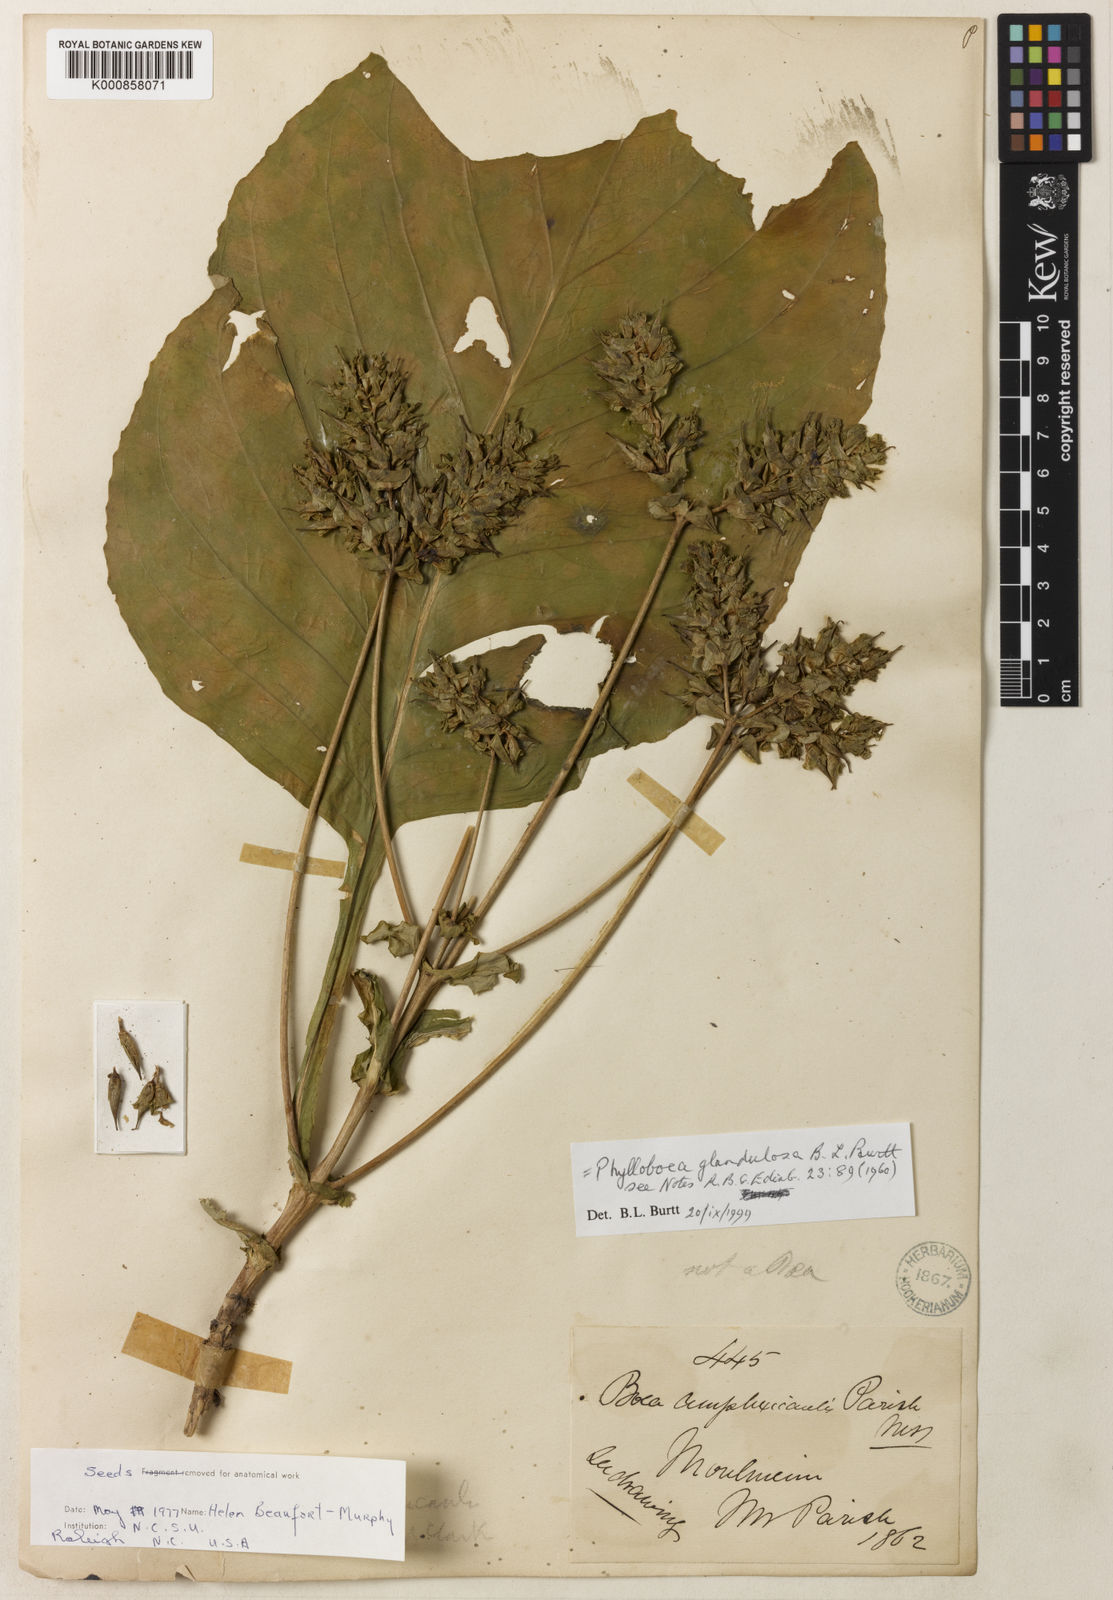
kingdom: Plantae
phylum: Tracheophyta
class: Magnoliopsida
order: Lamiales
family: Gesneriaceae
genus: Paraboea
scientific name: Paraboea glandulosa
